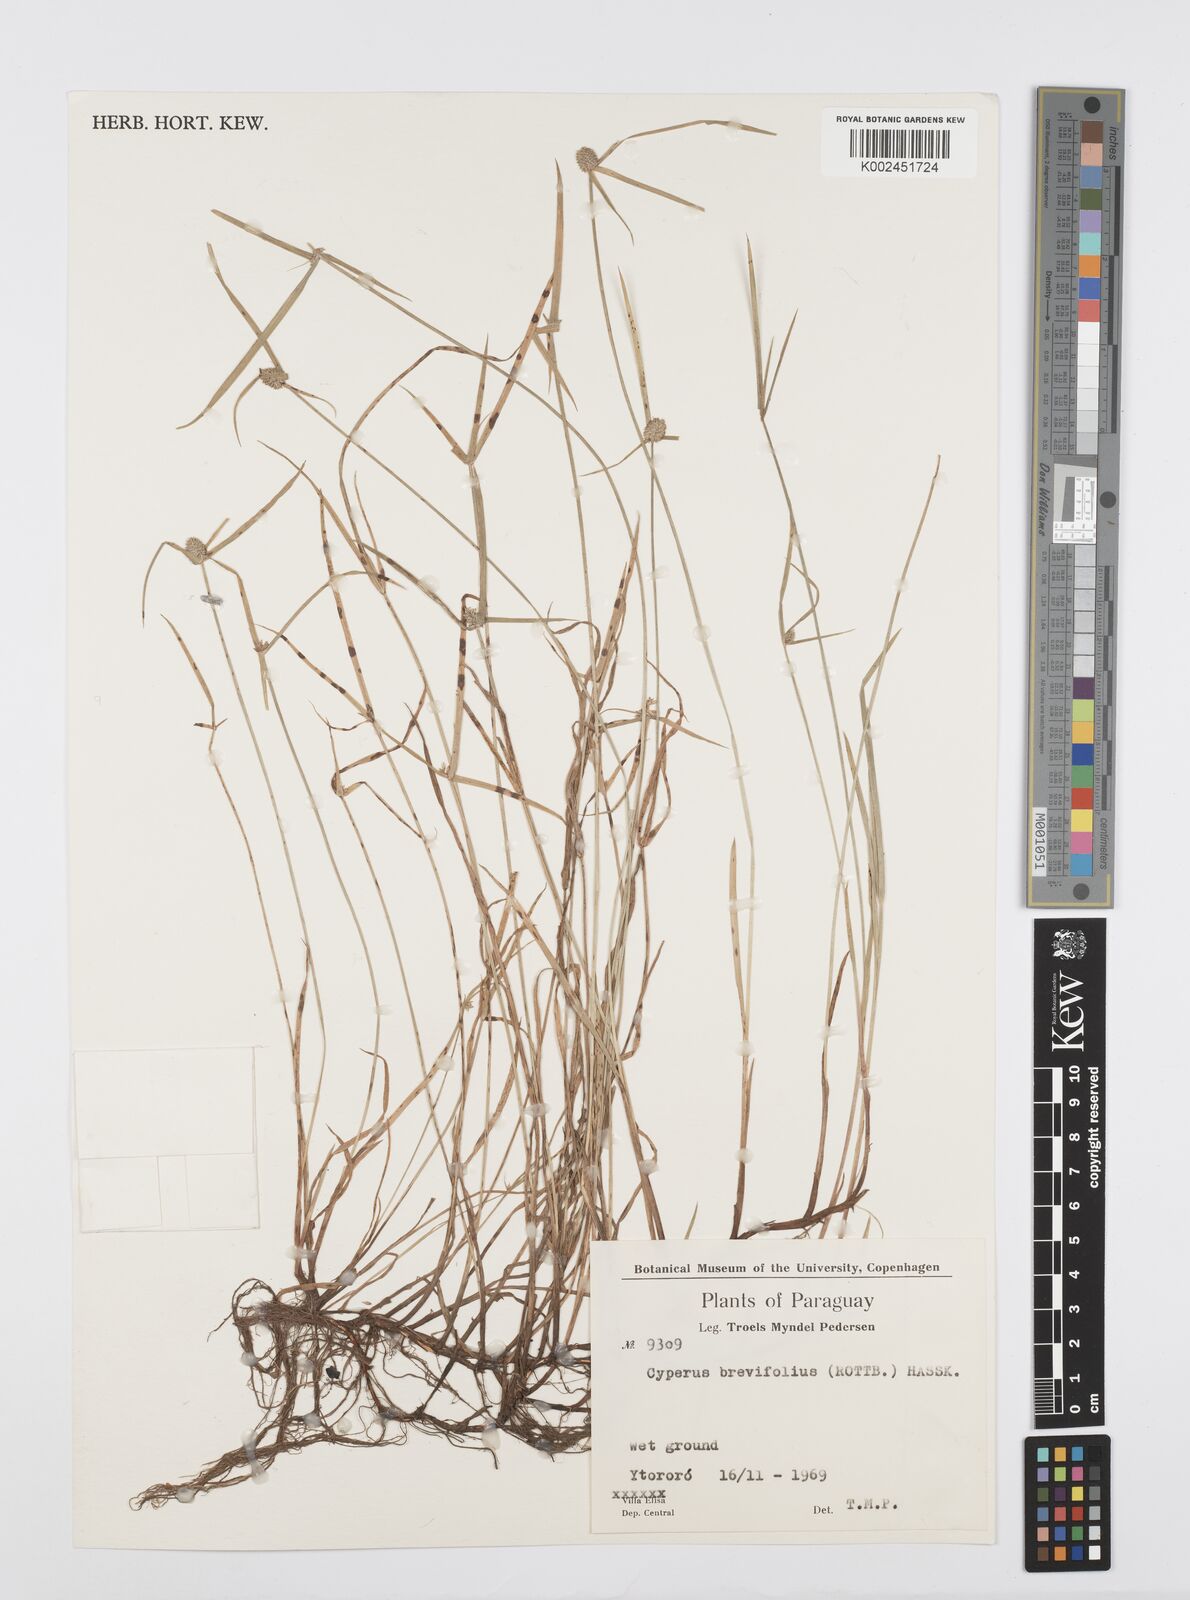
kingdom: Plantae
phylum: Tracheophyta
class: Liliopsida
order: Poales
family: Cyperaceae
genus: Cyperus
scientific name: Cyperus brevifolius
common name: Globe kyllinga
